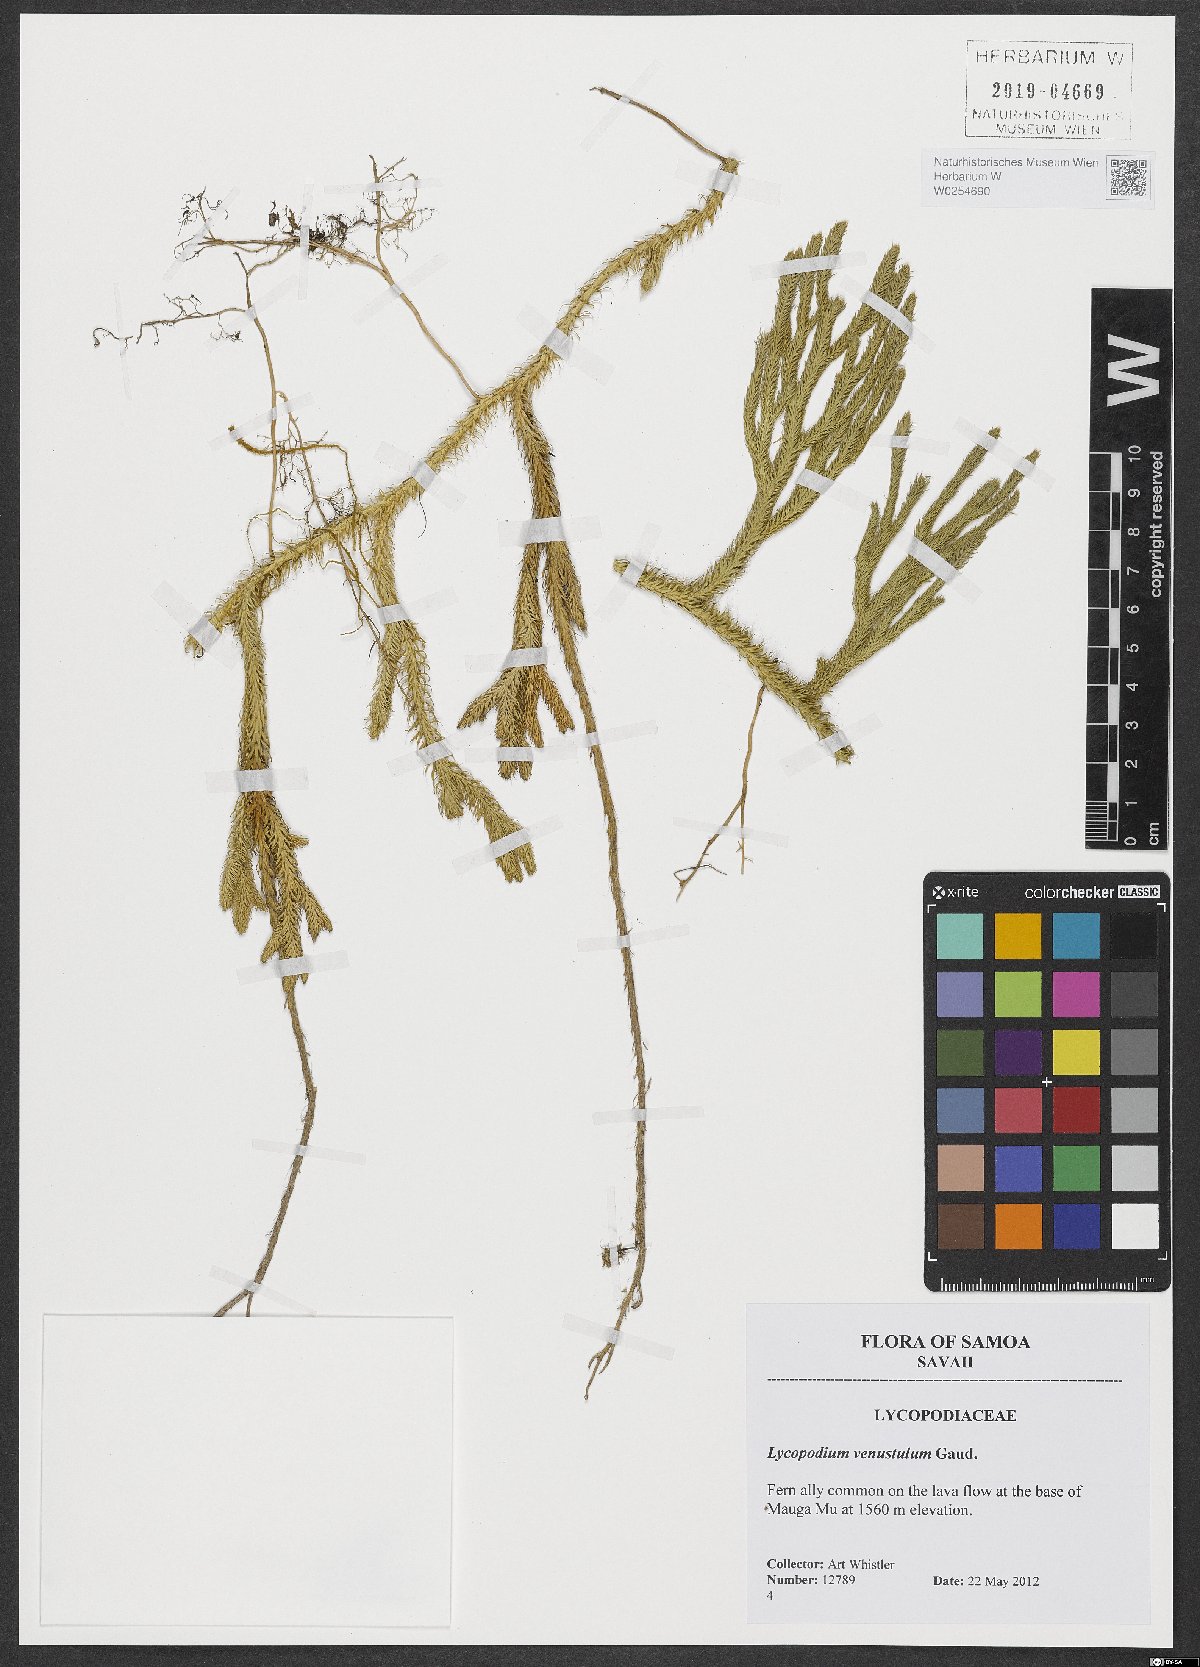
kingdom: Plantae
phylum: Tracheophyta
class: Lycopodiopsida
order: Lycopodiales
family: Lycopodiaceae
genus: Lycopodium
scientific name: Lycopodium venustulum
